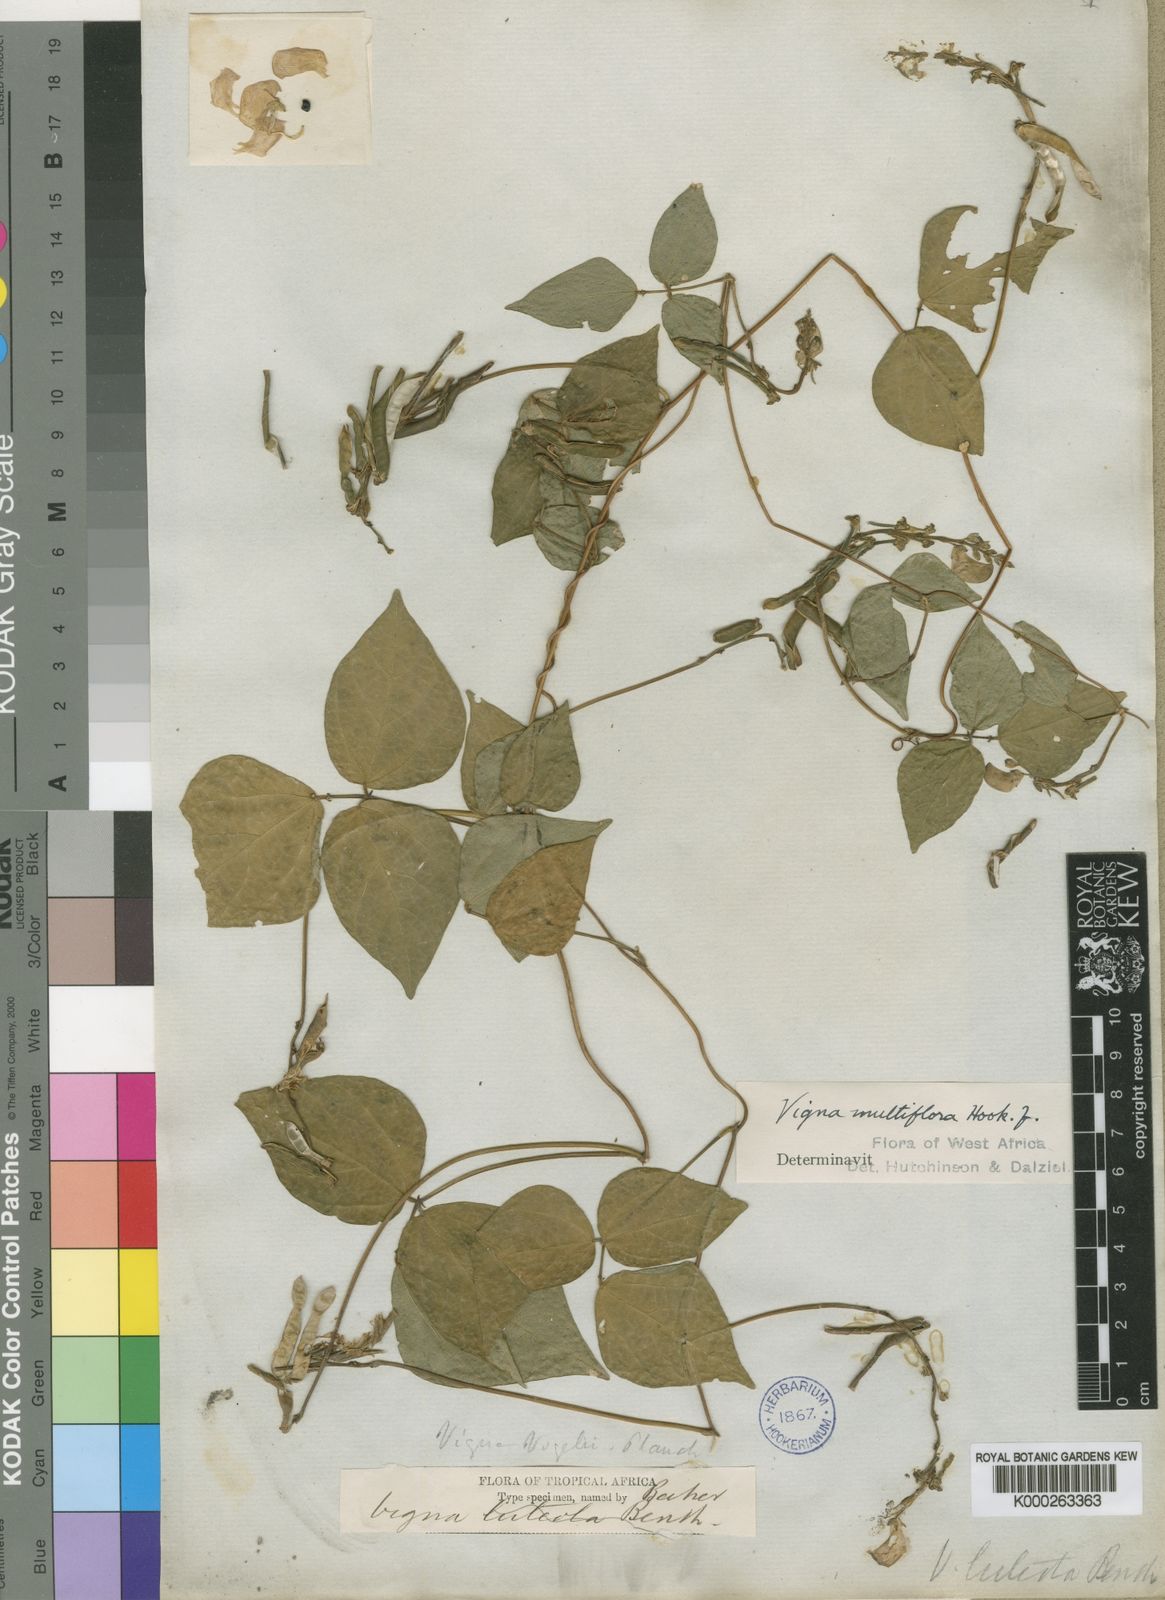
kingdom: Plantae
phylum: Tracheophyta
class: Magnoliopsida
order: Fabales
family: Fabaceae
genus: Vigna
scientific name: Vigna gracilis
